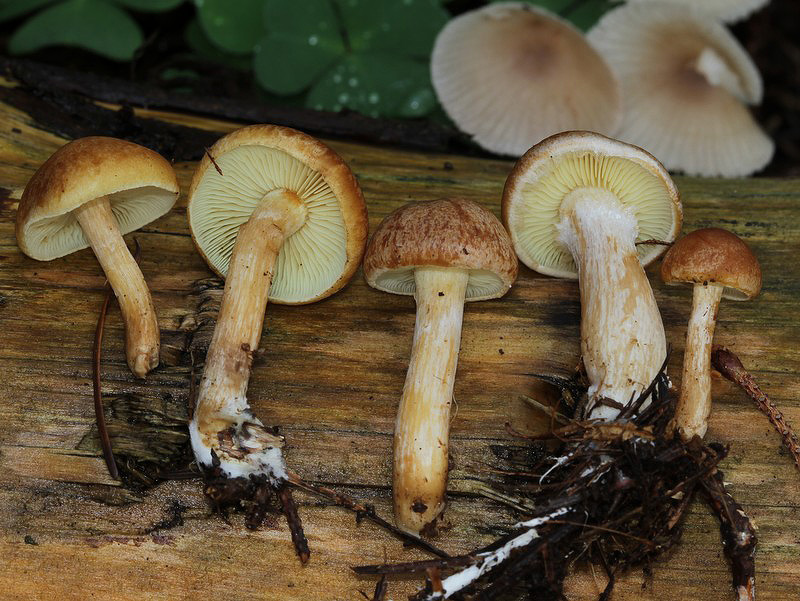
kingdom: Fungi
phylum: Basidiomycota
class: Agaricomycetes
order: Agaricales
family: Hymenogastraceae
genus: Gymnopilus
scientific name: Gymnopilus penetrans
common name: plettet flammehat
